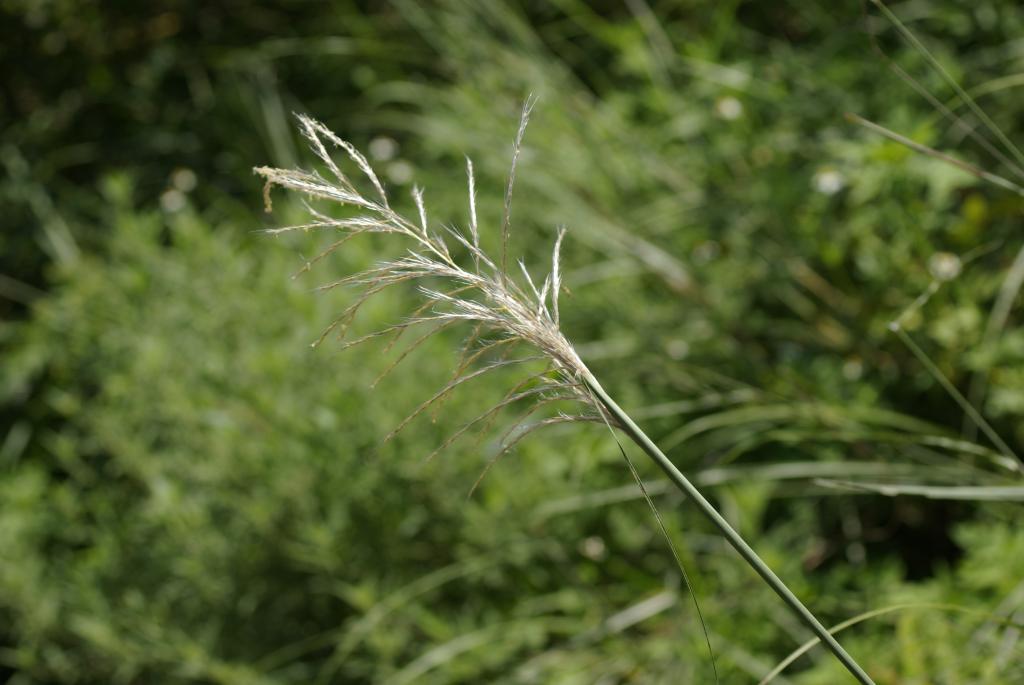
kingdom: Plantae
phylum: Tracheophyta
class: Liliopsida
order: Poales
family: Poaceae
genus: Saccharum
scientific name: Saccharum spontaneum
